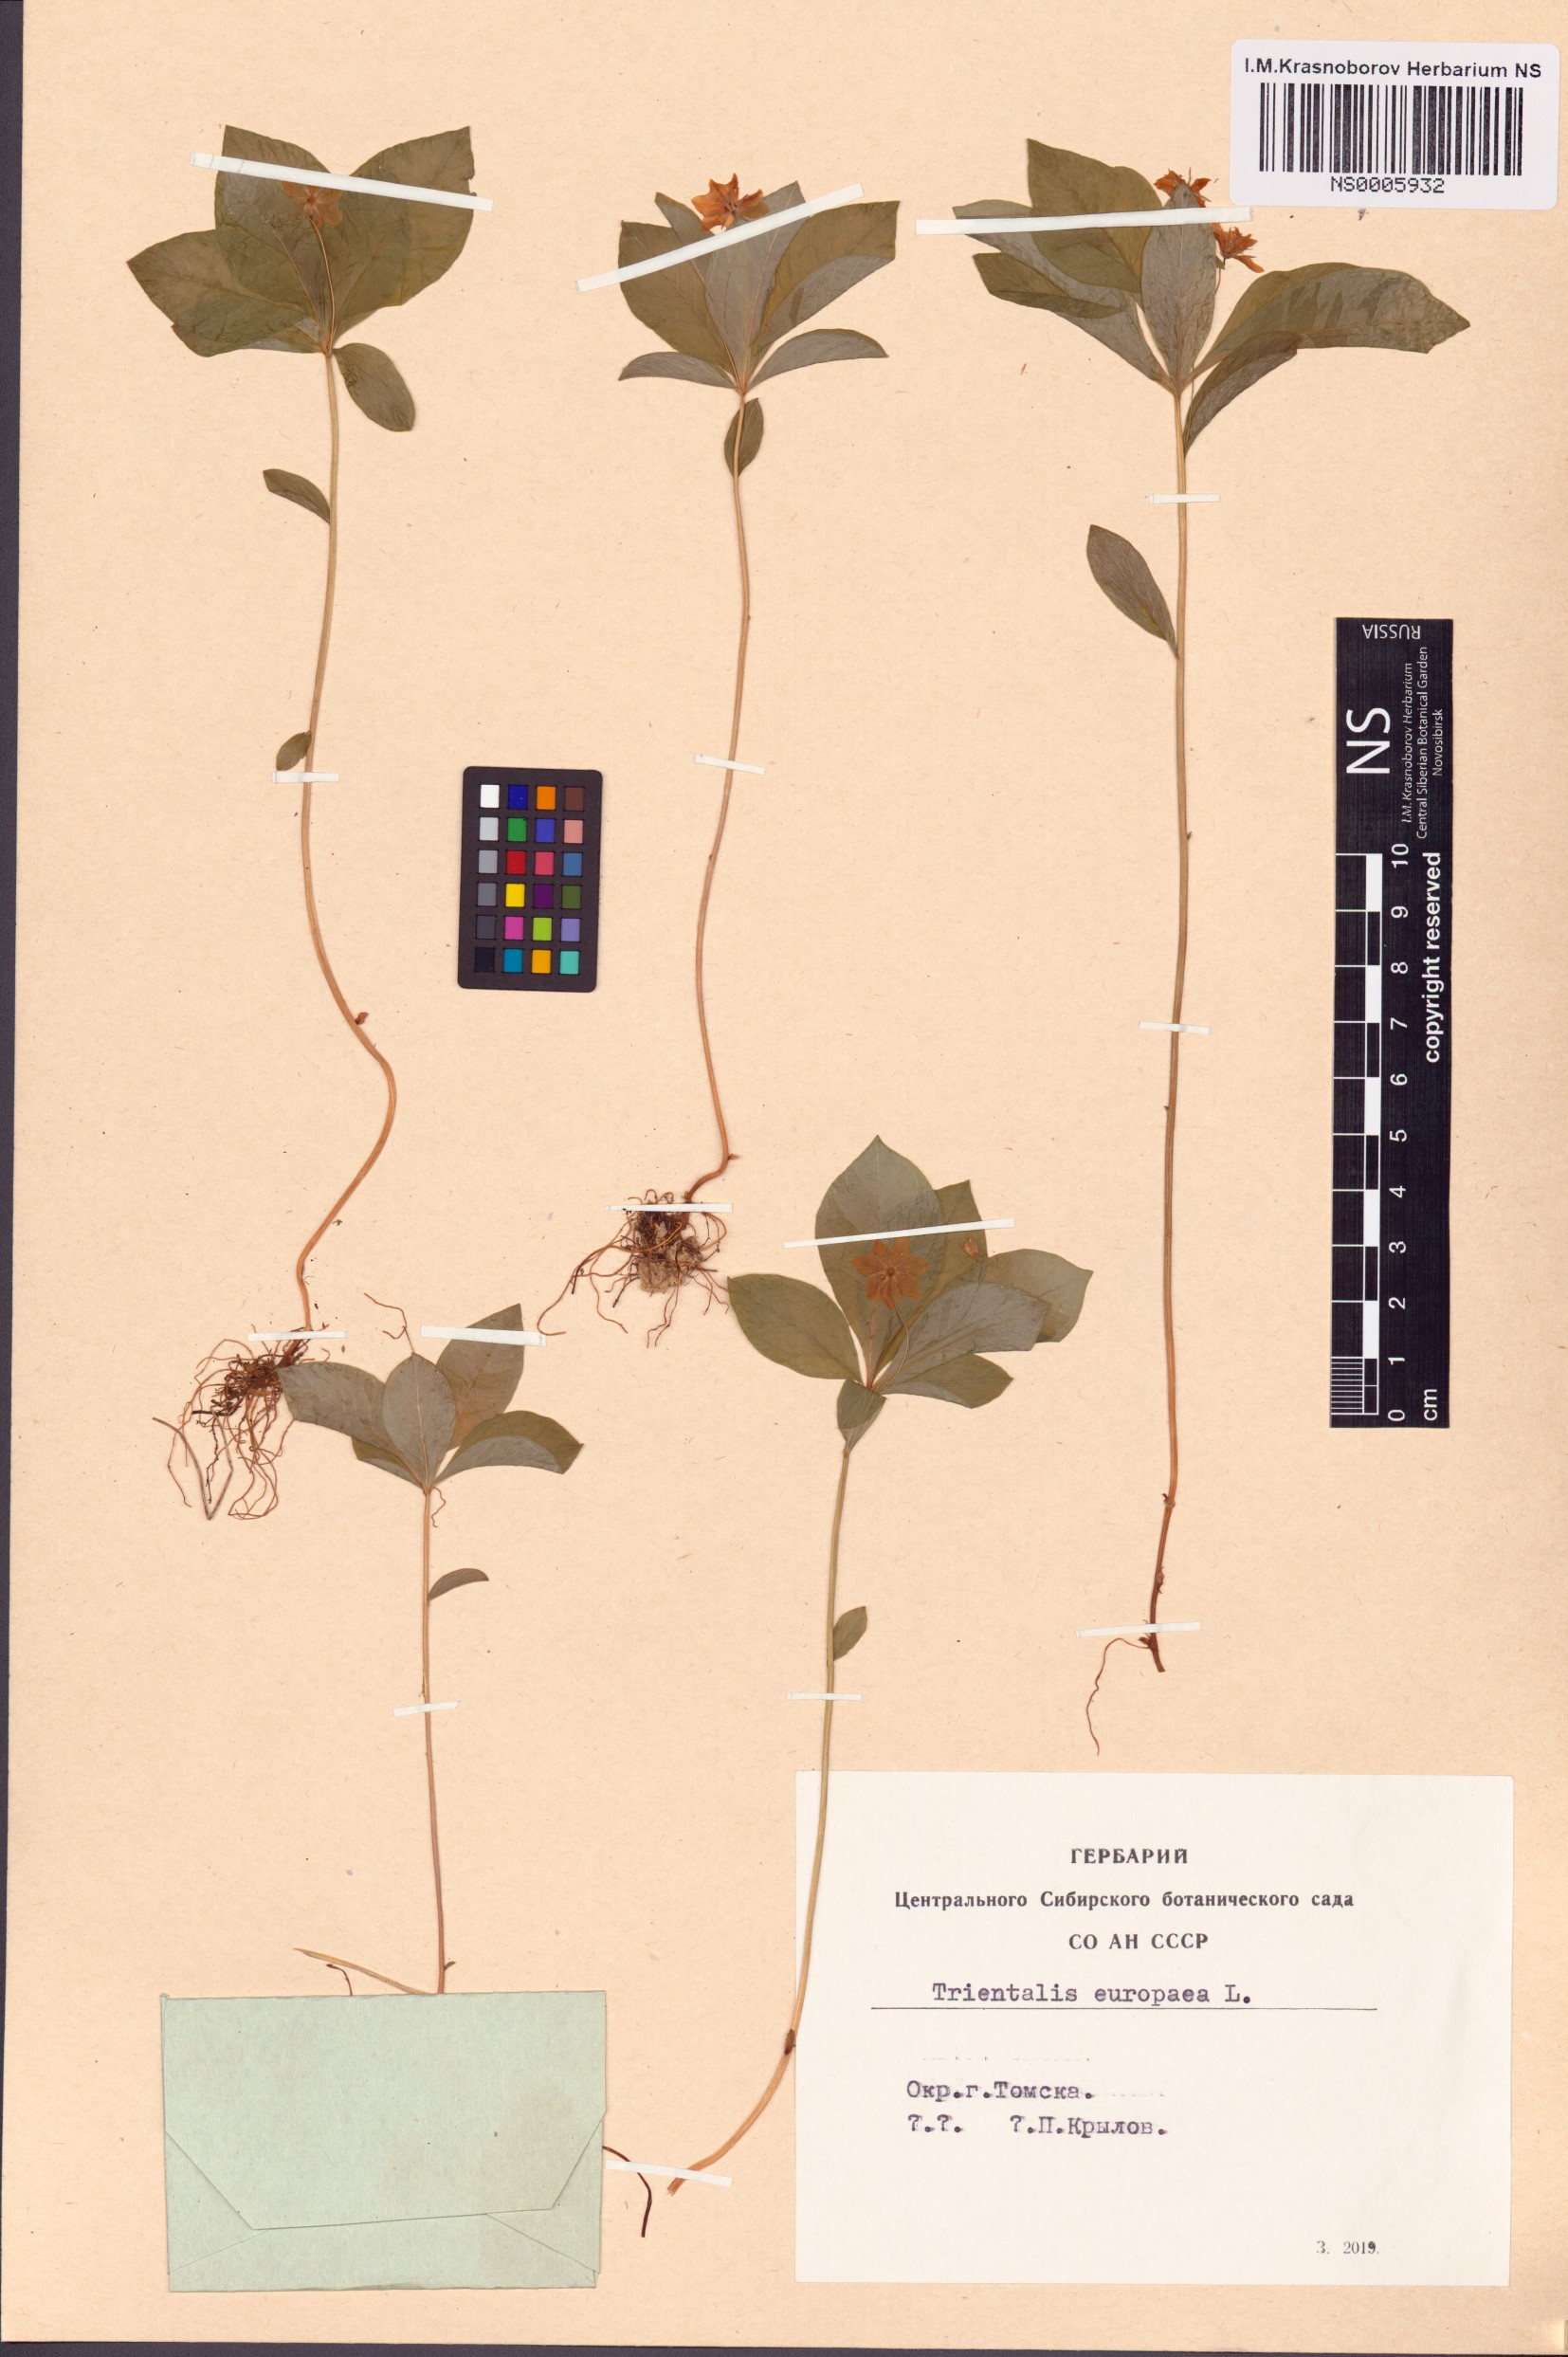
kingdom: Plantae
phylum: Tracheophyta
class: Magnoliopsida
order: Ericales
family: Primulaceae
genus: Lysimachia
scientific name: Lysimachia europaea
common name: Arctic starflower
